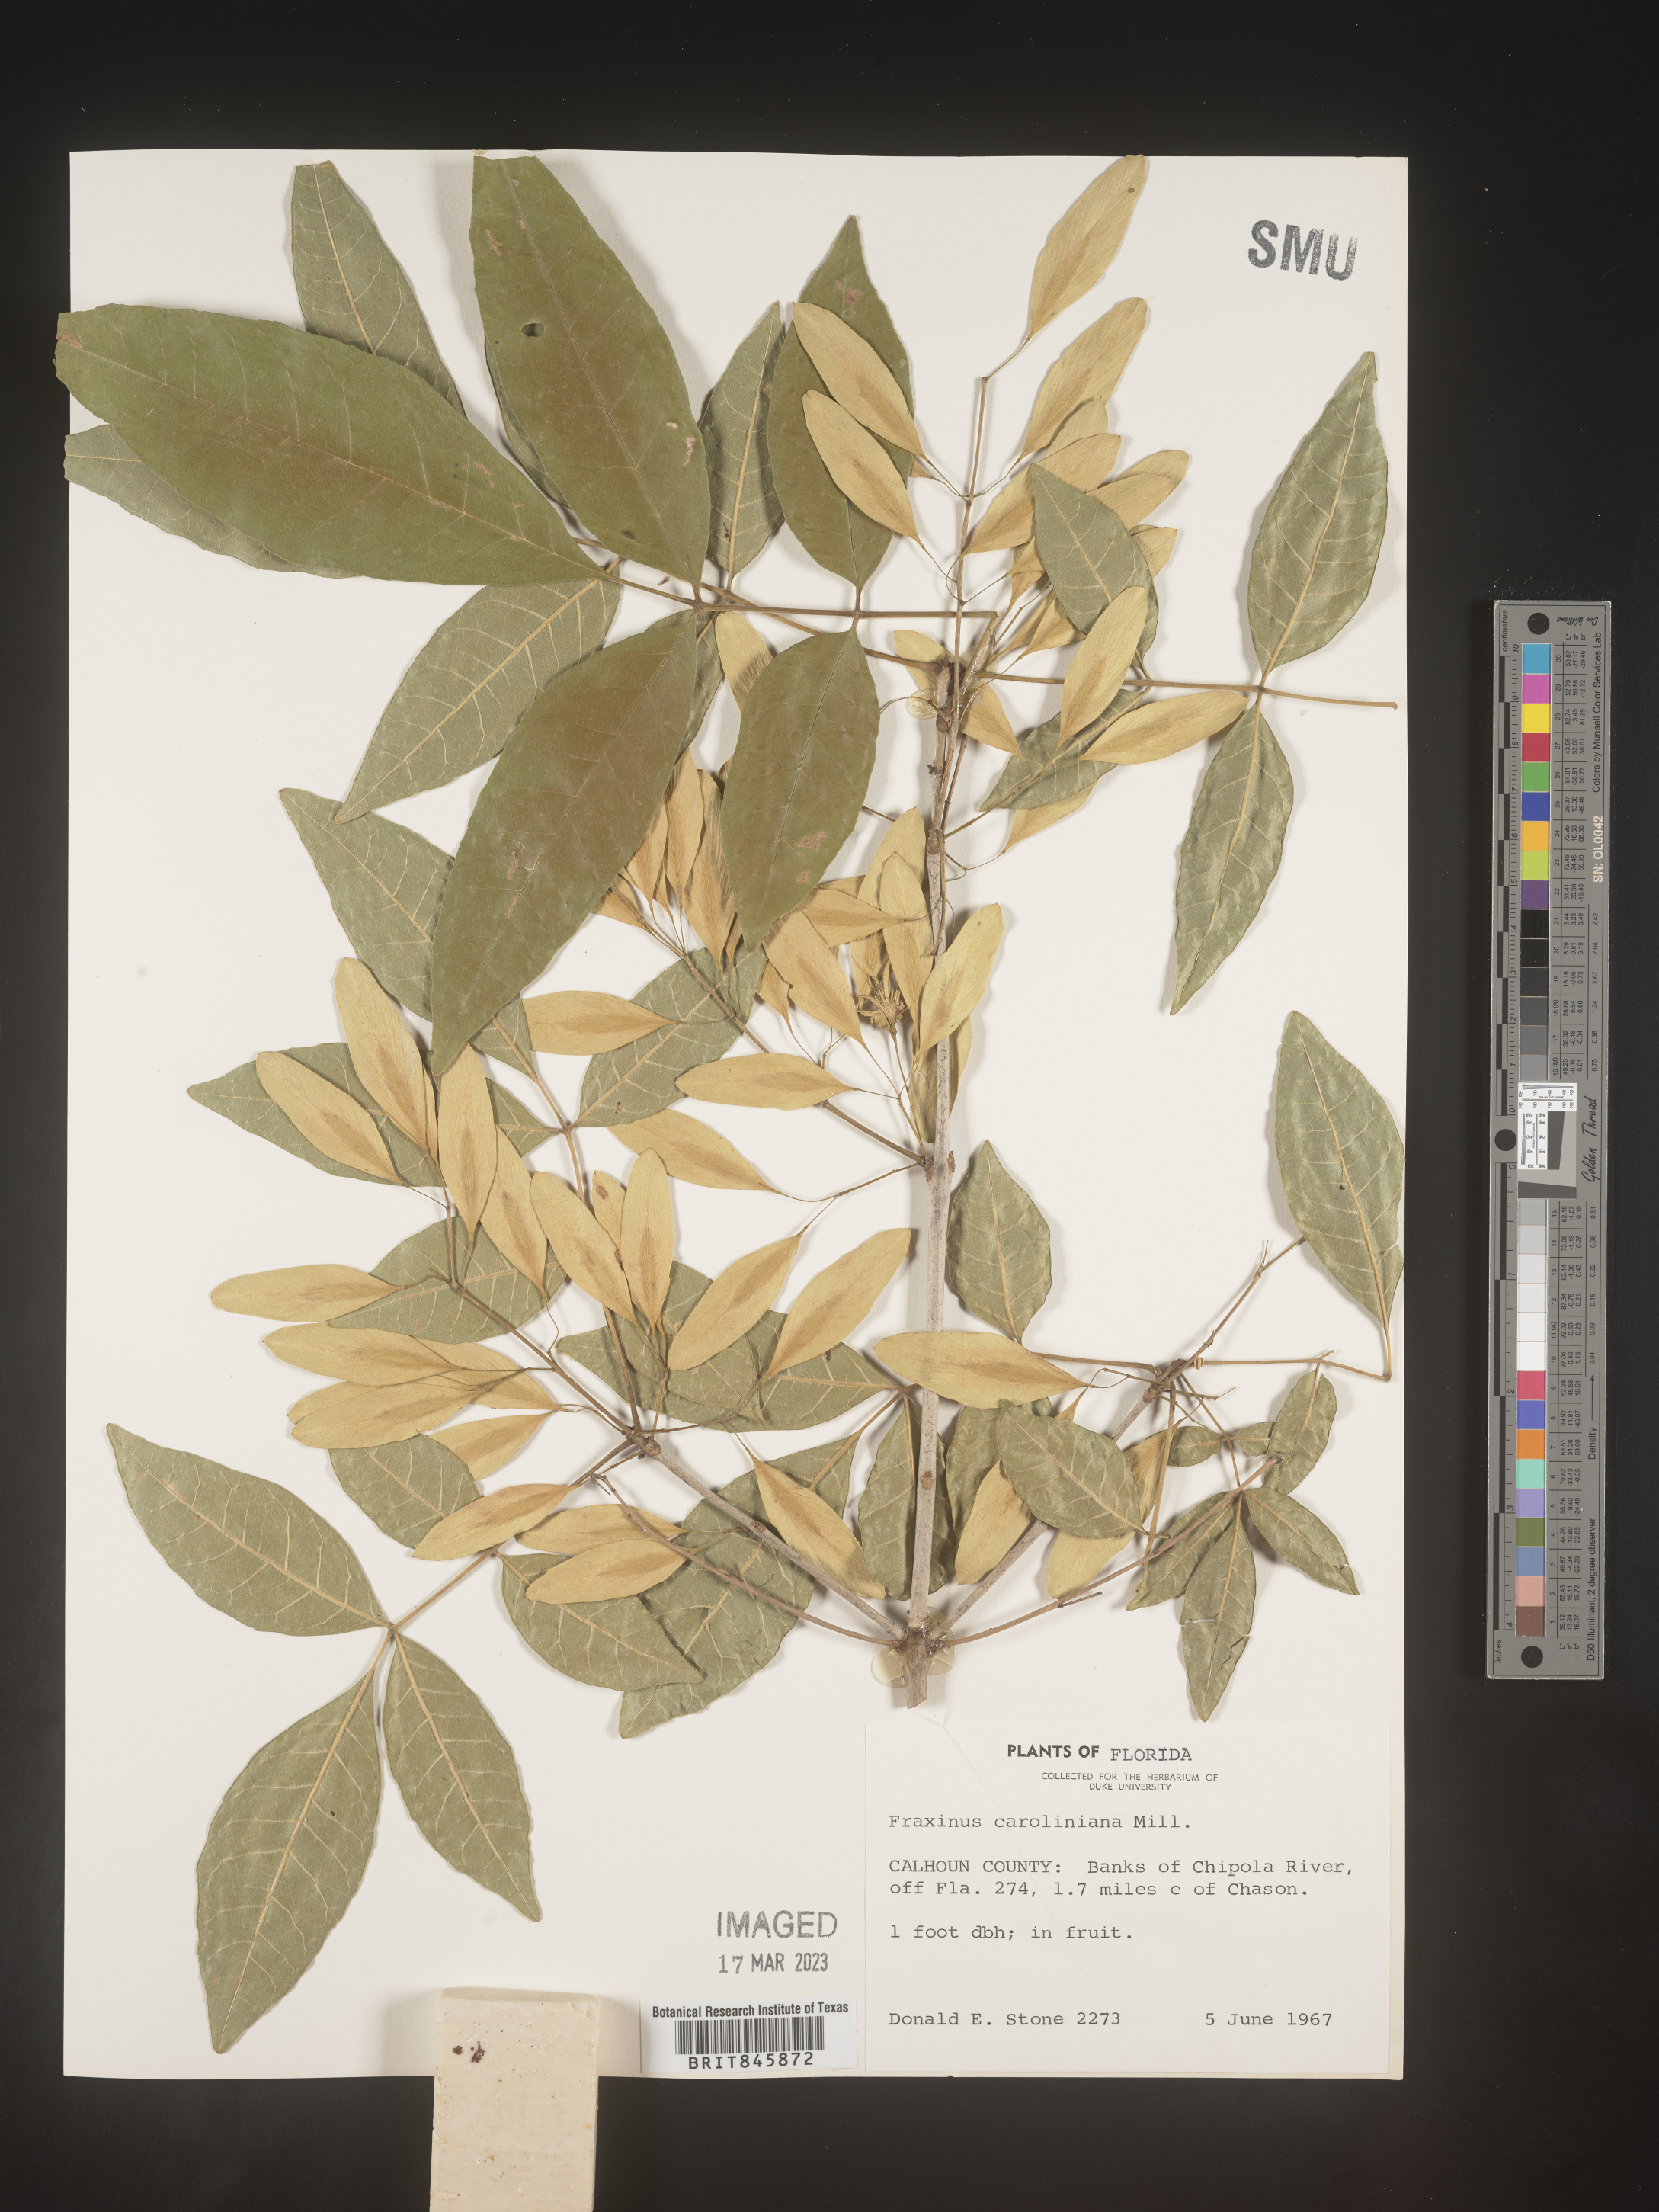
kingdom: Plantae
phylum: Tracheophyta
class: Magnoliopsida
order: Lamiales
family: Oleaceae
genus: Fraxinus
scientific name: Fraxinus caroliniana
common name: Carolina ash
